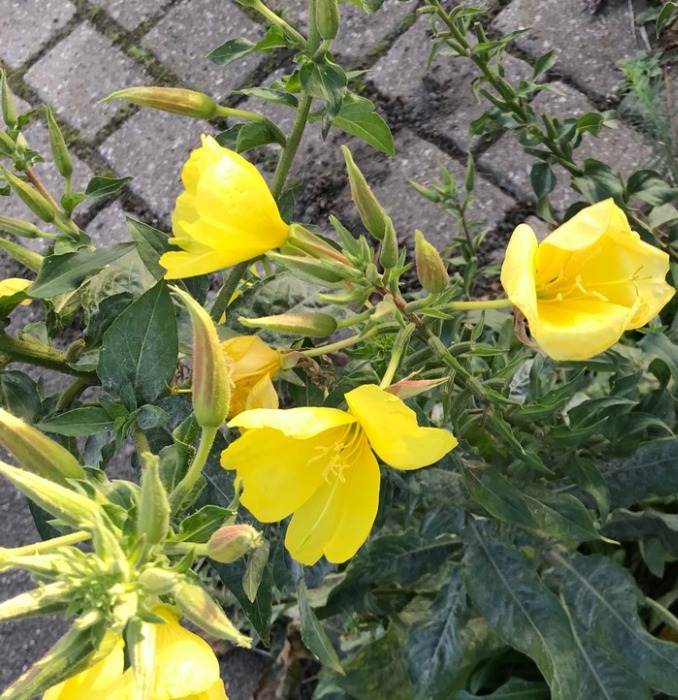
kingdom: Plantae
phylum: Tracheophyta
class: Magnoliopsida
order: Myrtales
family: Onagraceae
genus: Oenothera
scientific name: Oenothera glazioviana
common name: Kæmpe-natlys
